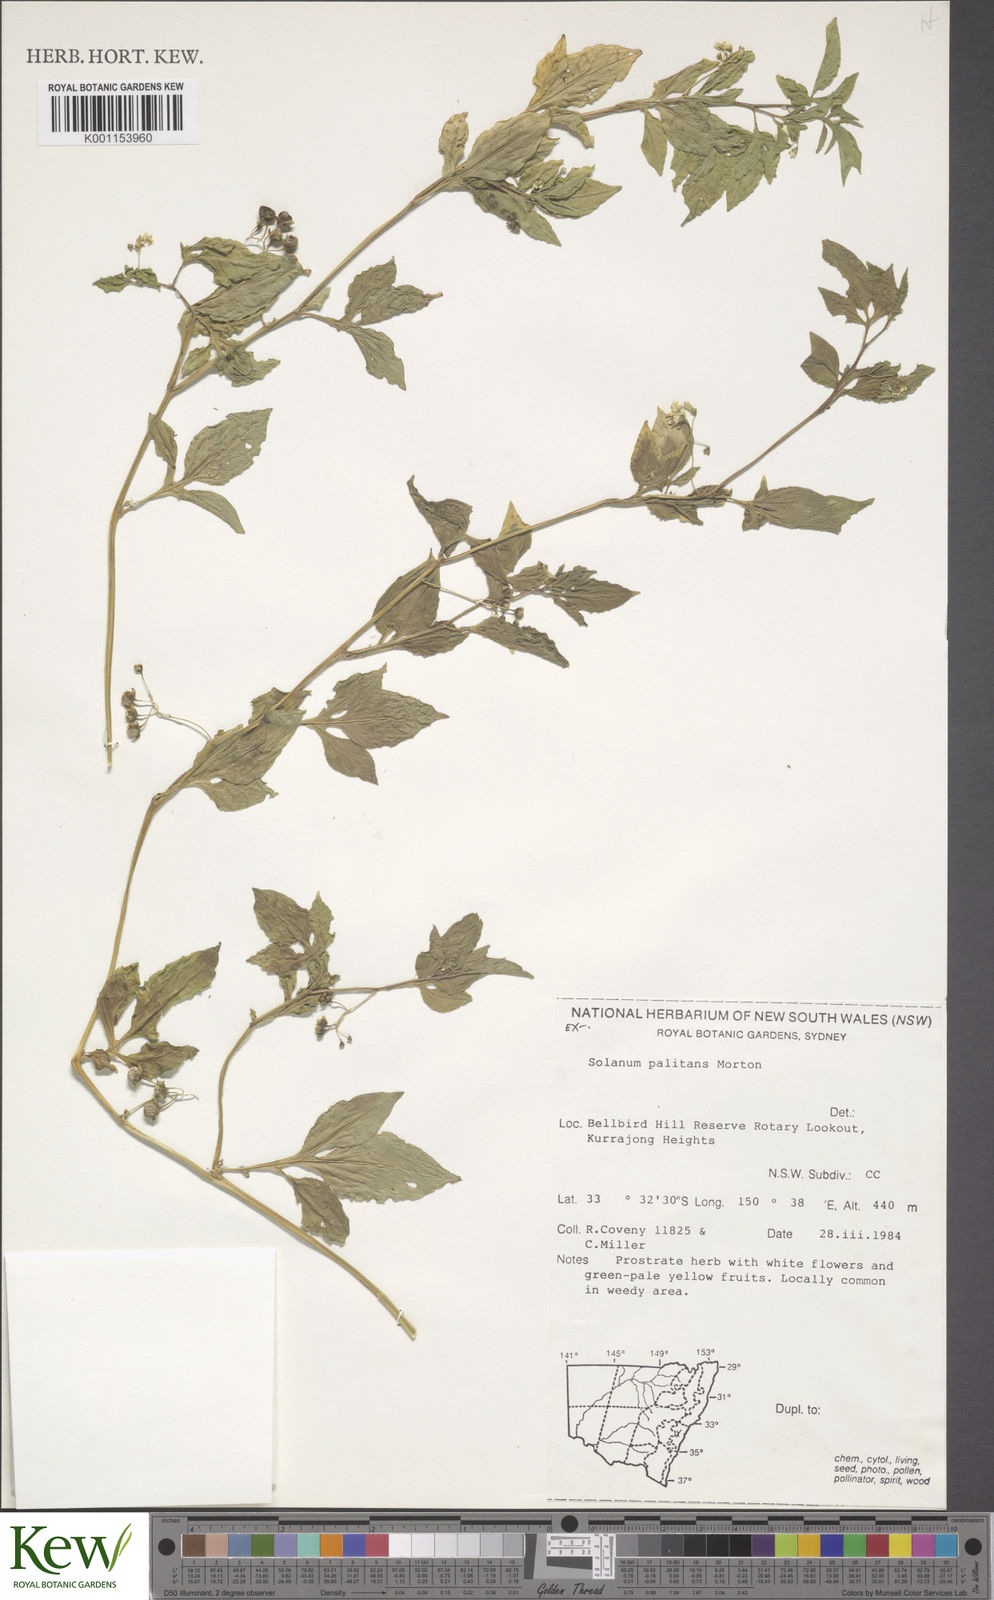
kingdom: Plantae
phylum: Tracheophyta
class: Magnoliopsida
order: Solanales
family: Solanaceae
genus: Solanum
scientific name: Solanum palitans
